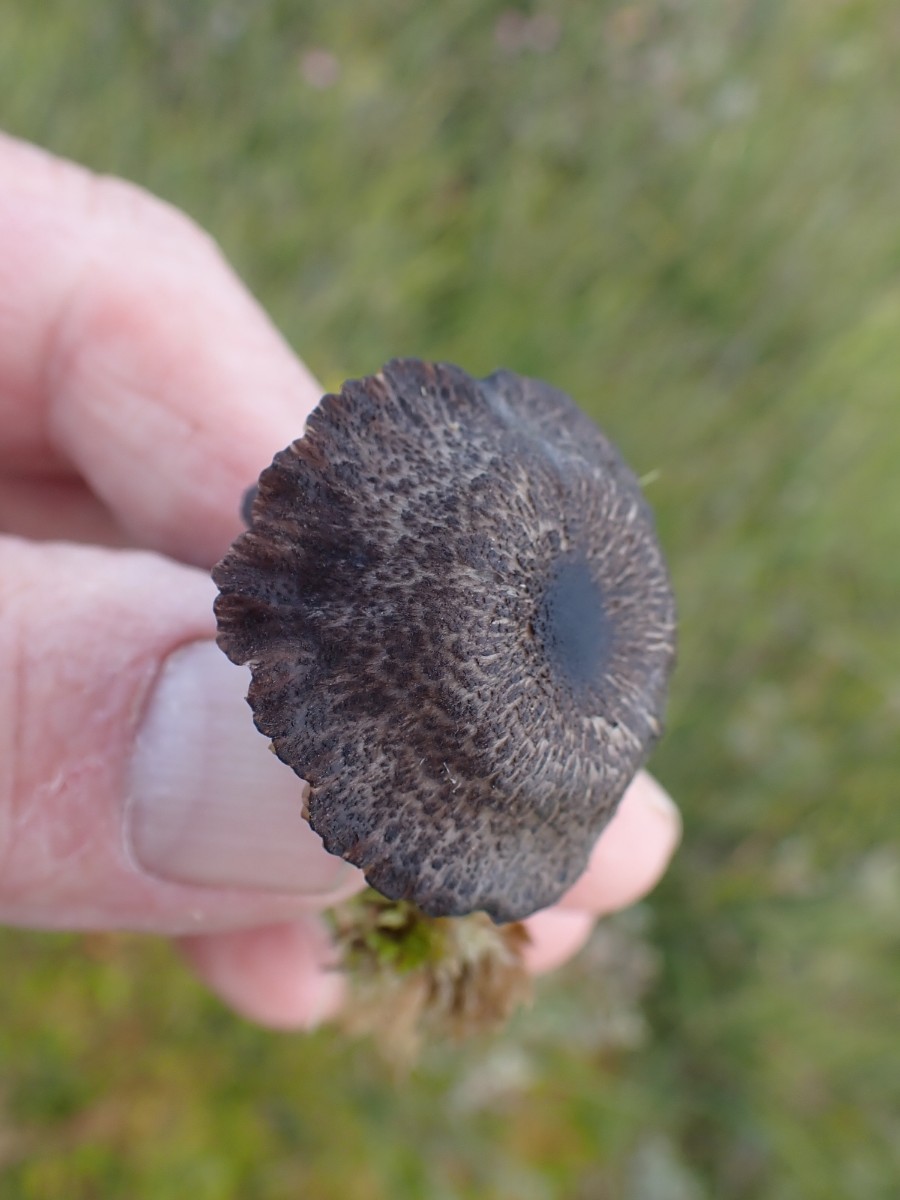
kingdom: Fungi
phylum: Basidiomycota
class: Agaricomycetes
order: Agaricales
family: Entolomataceae
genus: Entoloma
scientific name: Entoloma asprellum
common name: ru rødblad
